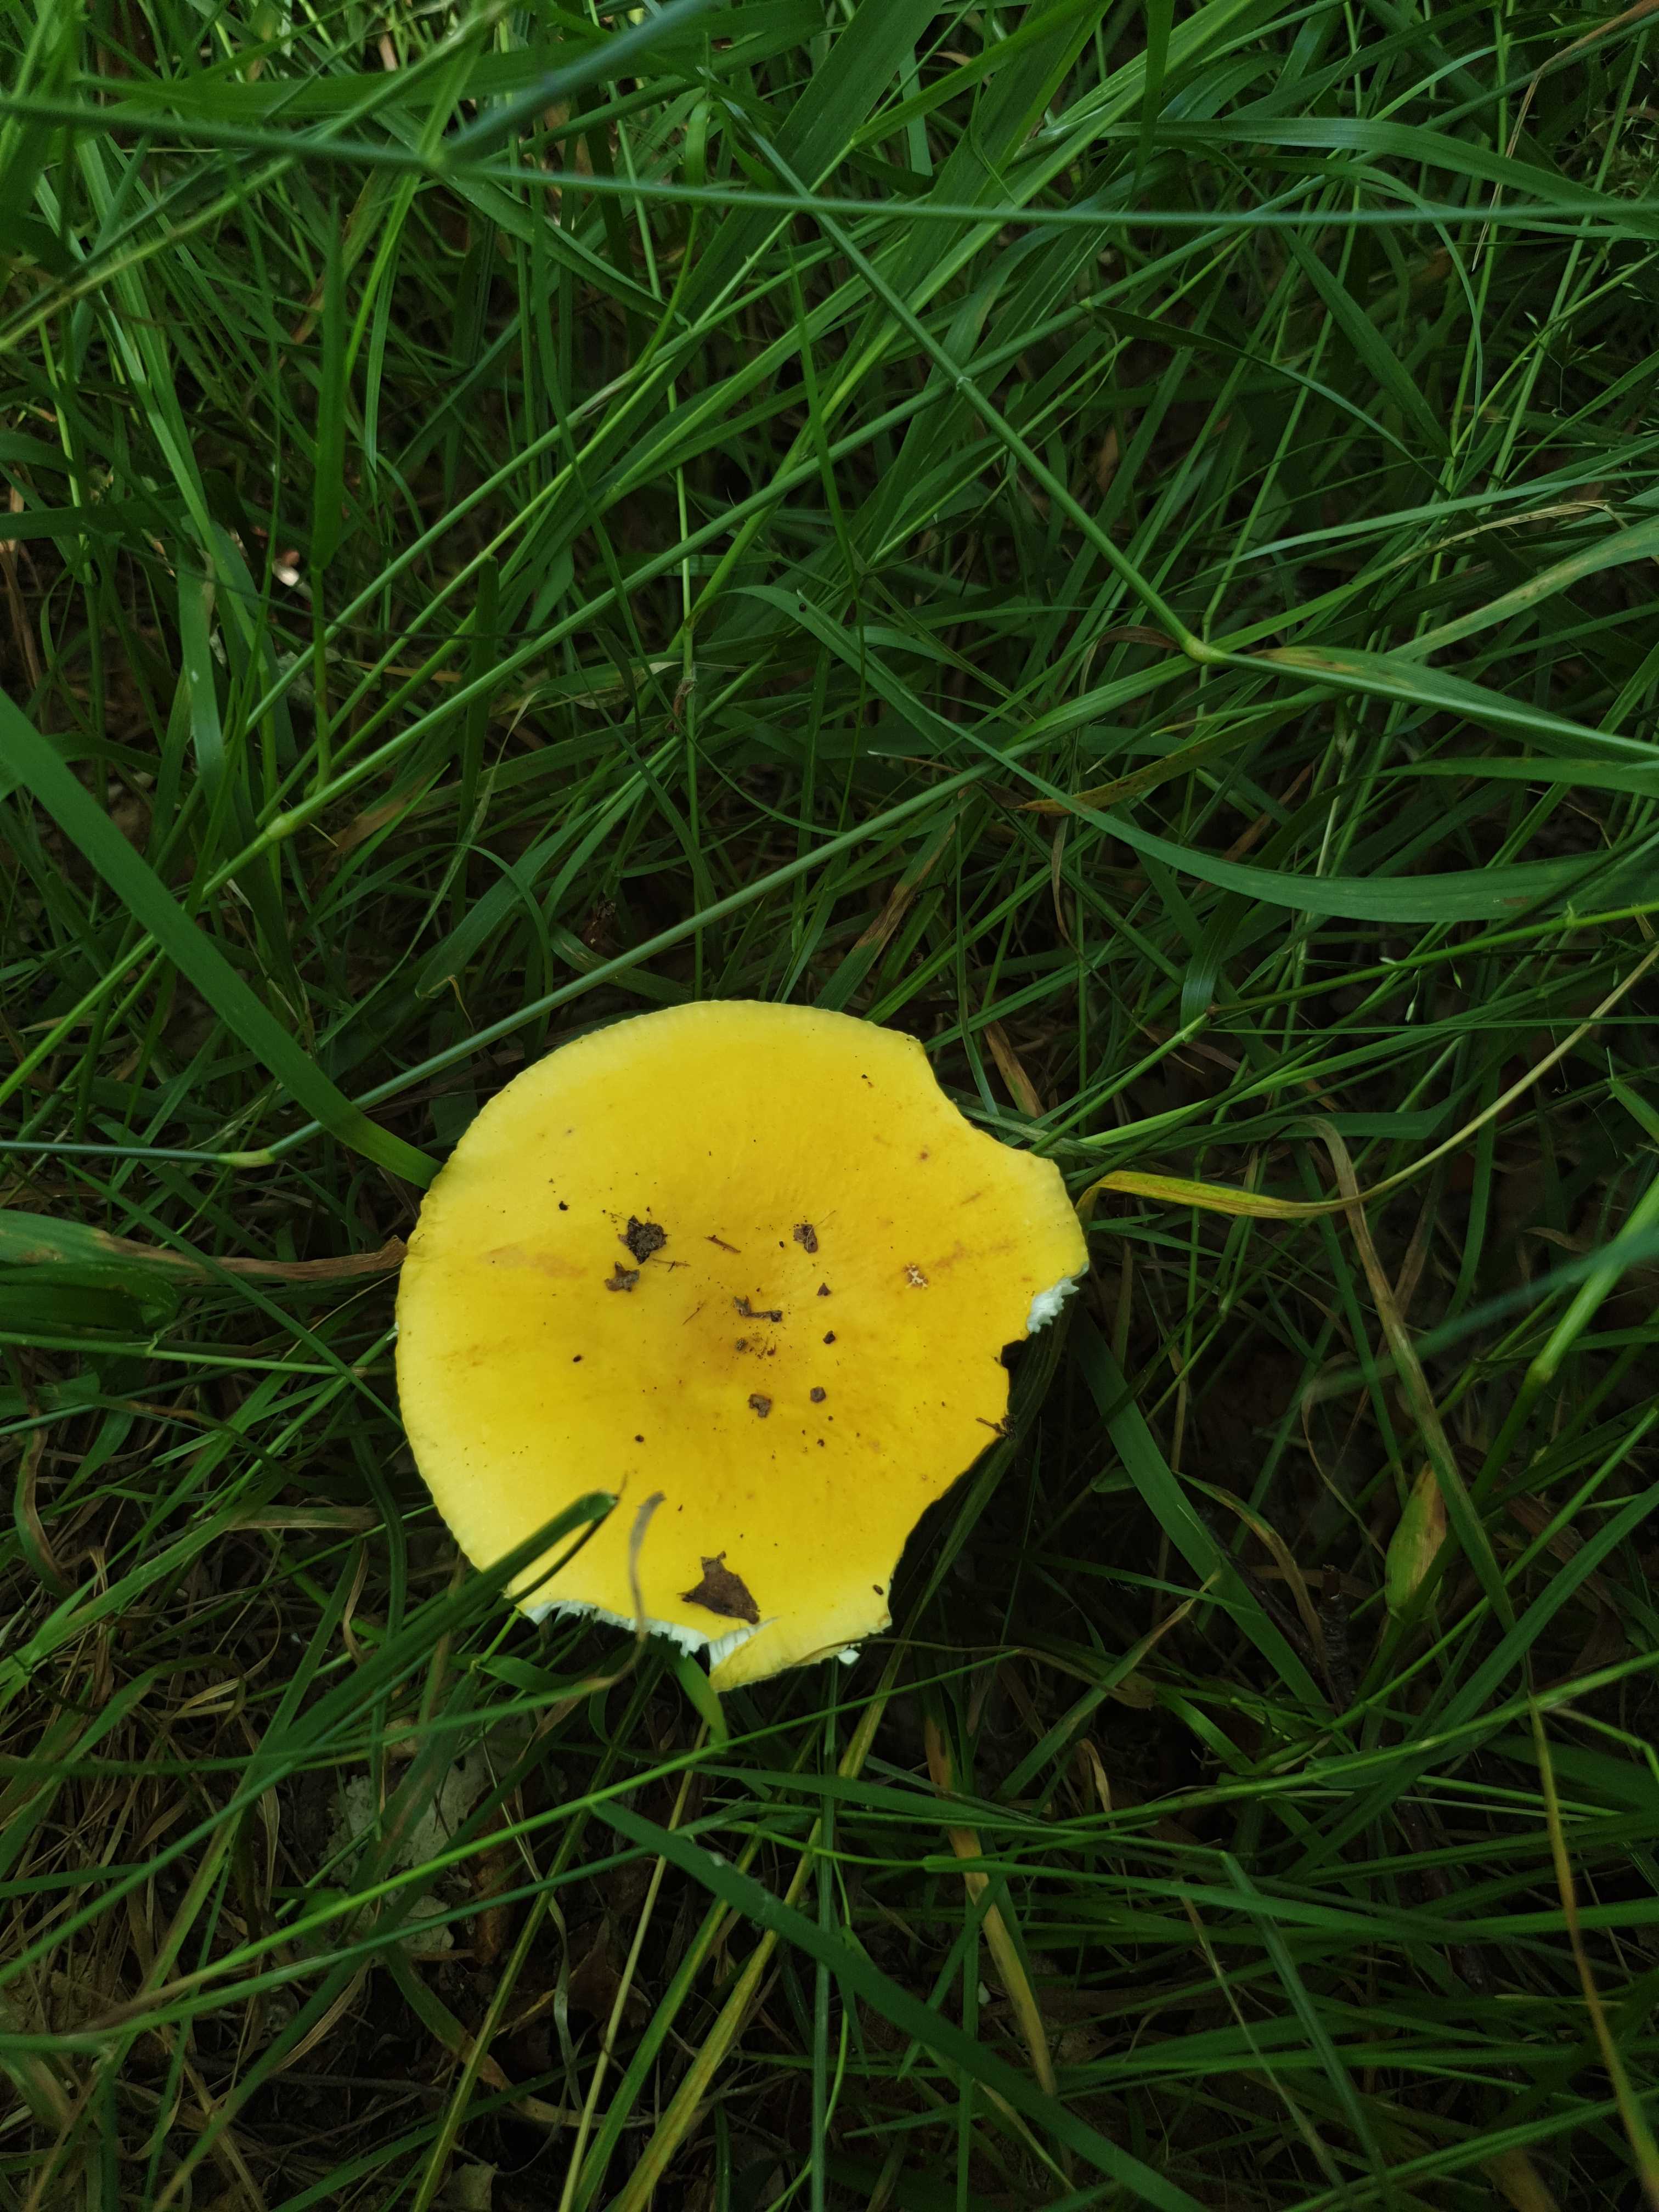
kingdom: Fungi
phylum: Basidiomycota
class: Agaricomycetes
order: Russulales
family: Russulaceae
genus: Russula
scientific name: Russula claroflava
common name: birke-skørhat
